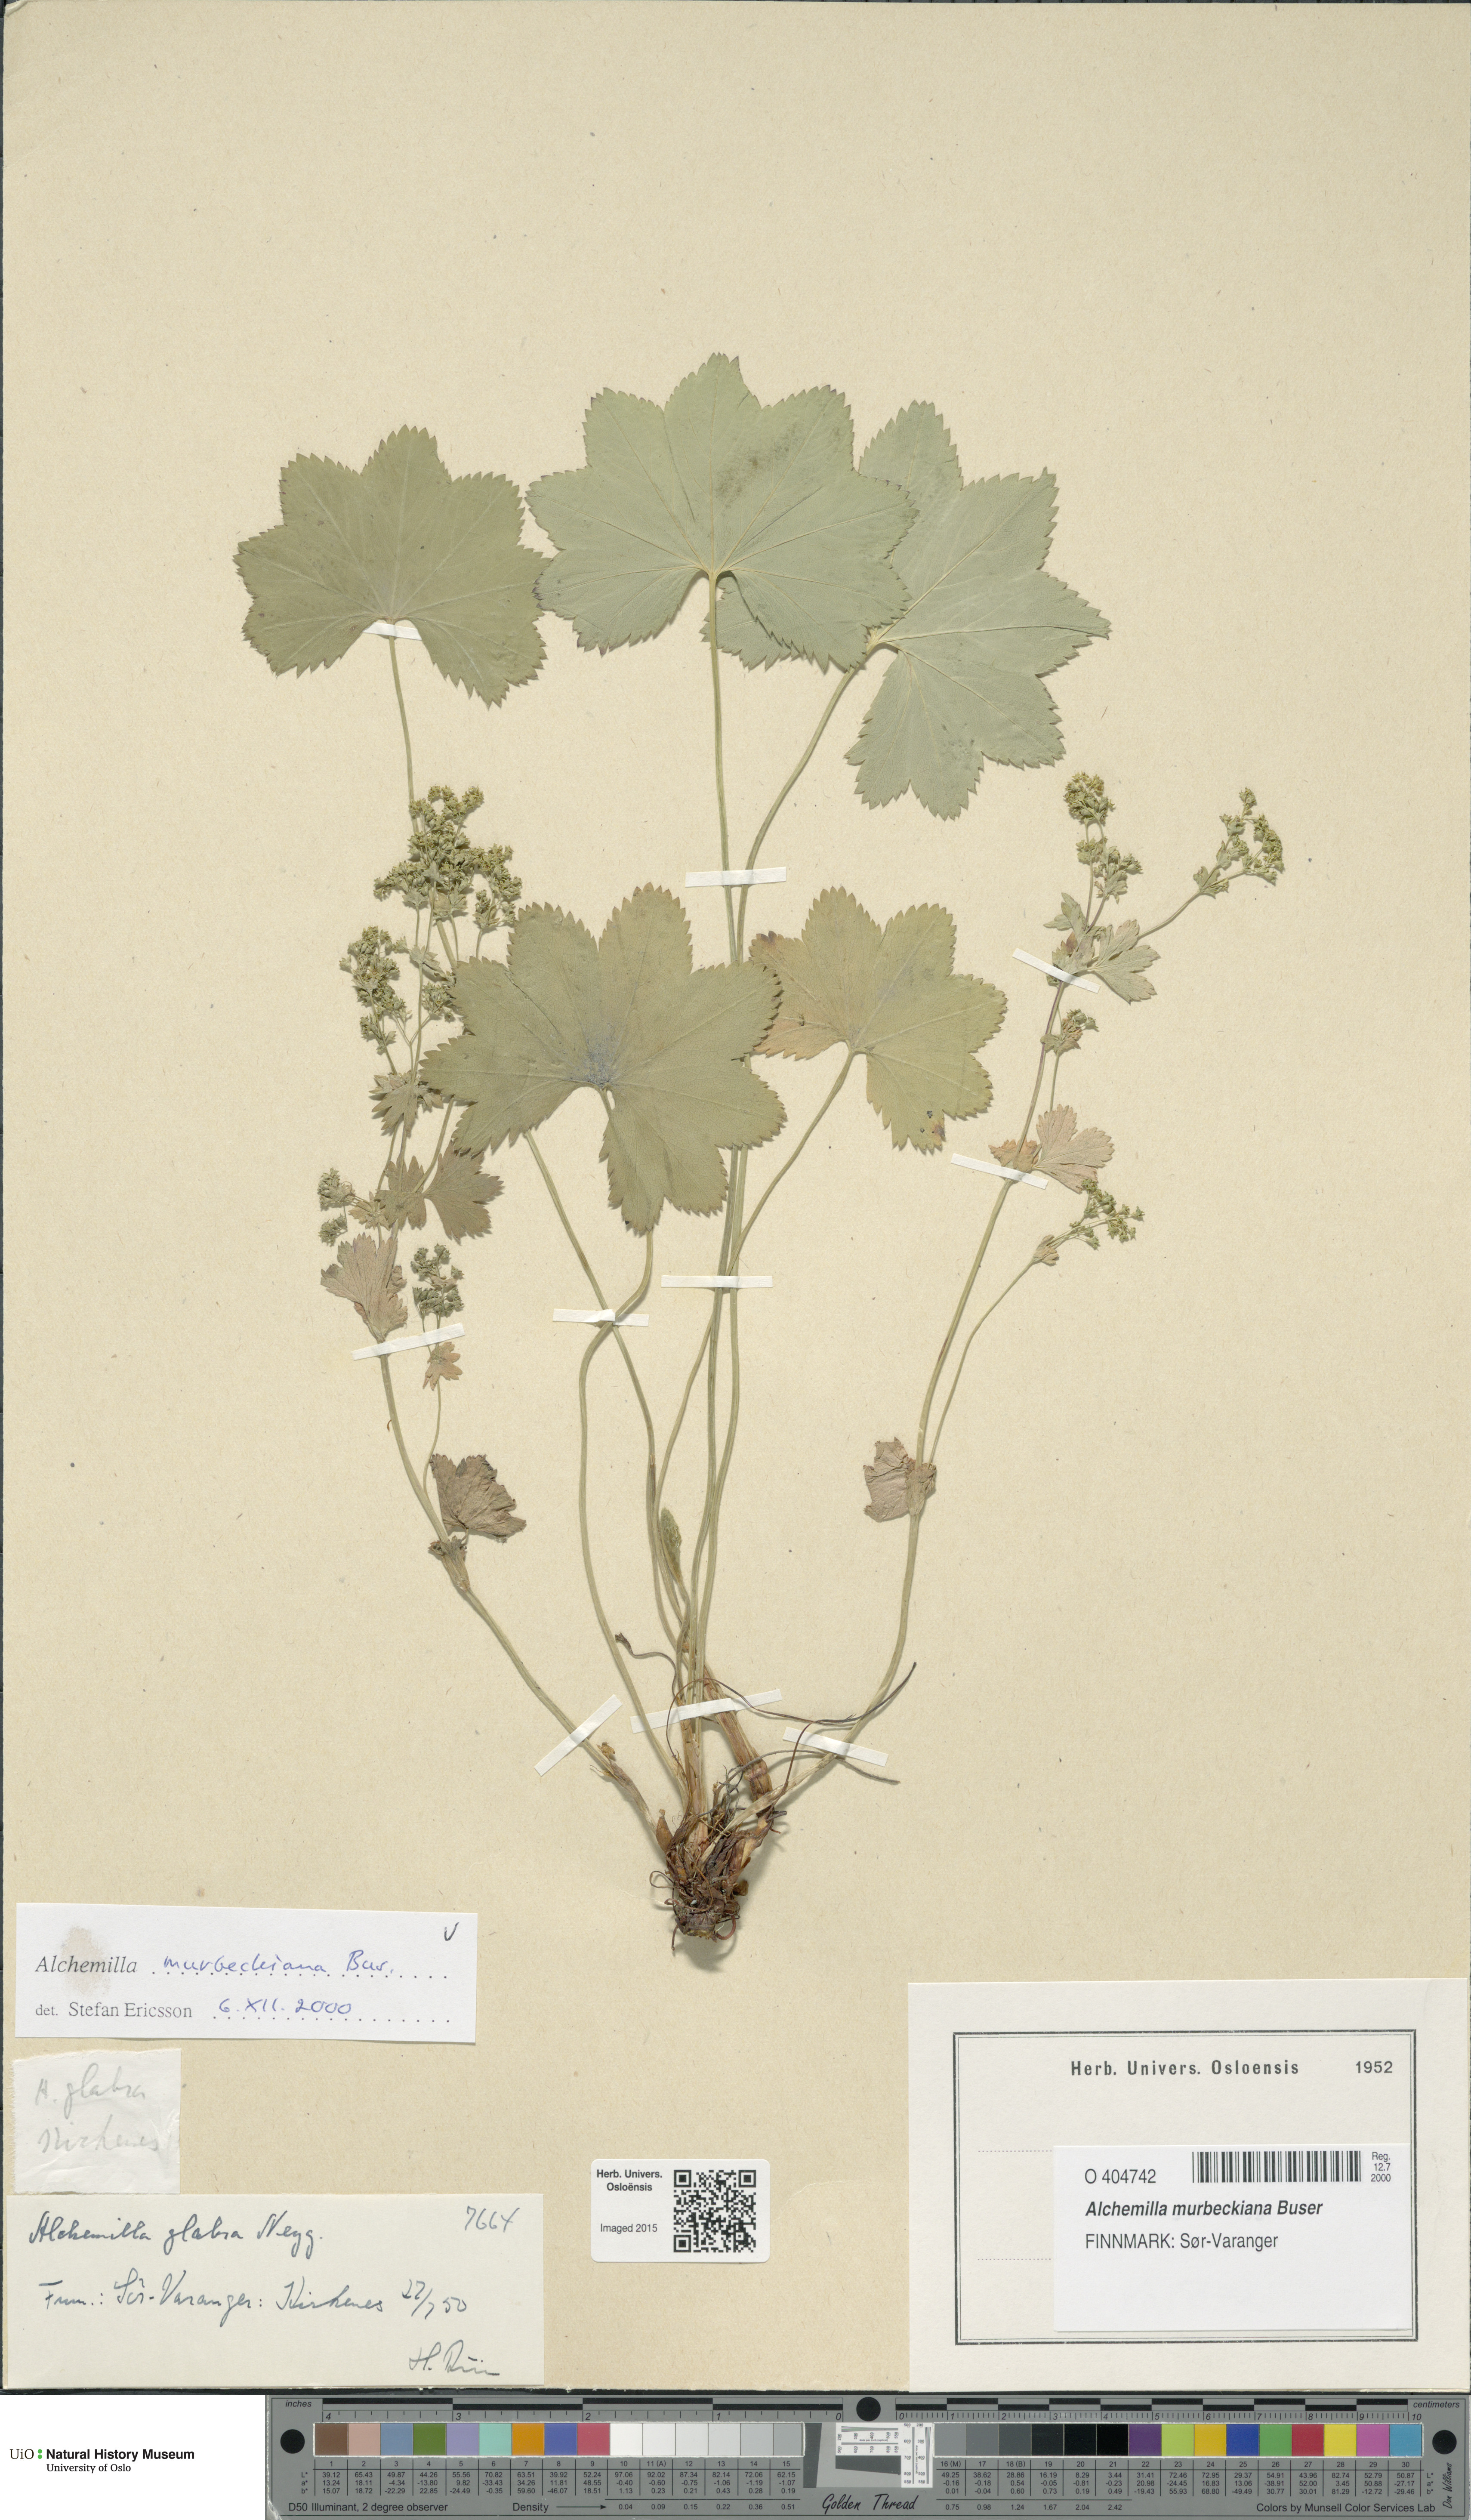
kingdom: Plantae
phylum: Tracheophyta
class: Magnoliopsida
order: Rosales
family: Rosaceae
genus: Alchemilla
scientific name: Alchemilla murbeckiana
